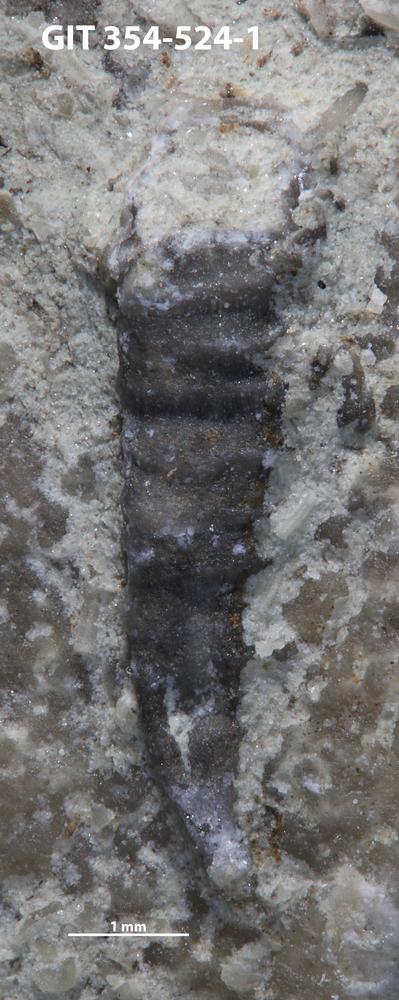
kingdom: Animalia
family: Cornulitidae
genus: Conchicolites
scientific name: Conchicolites
